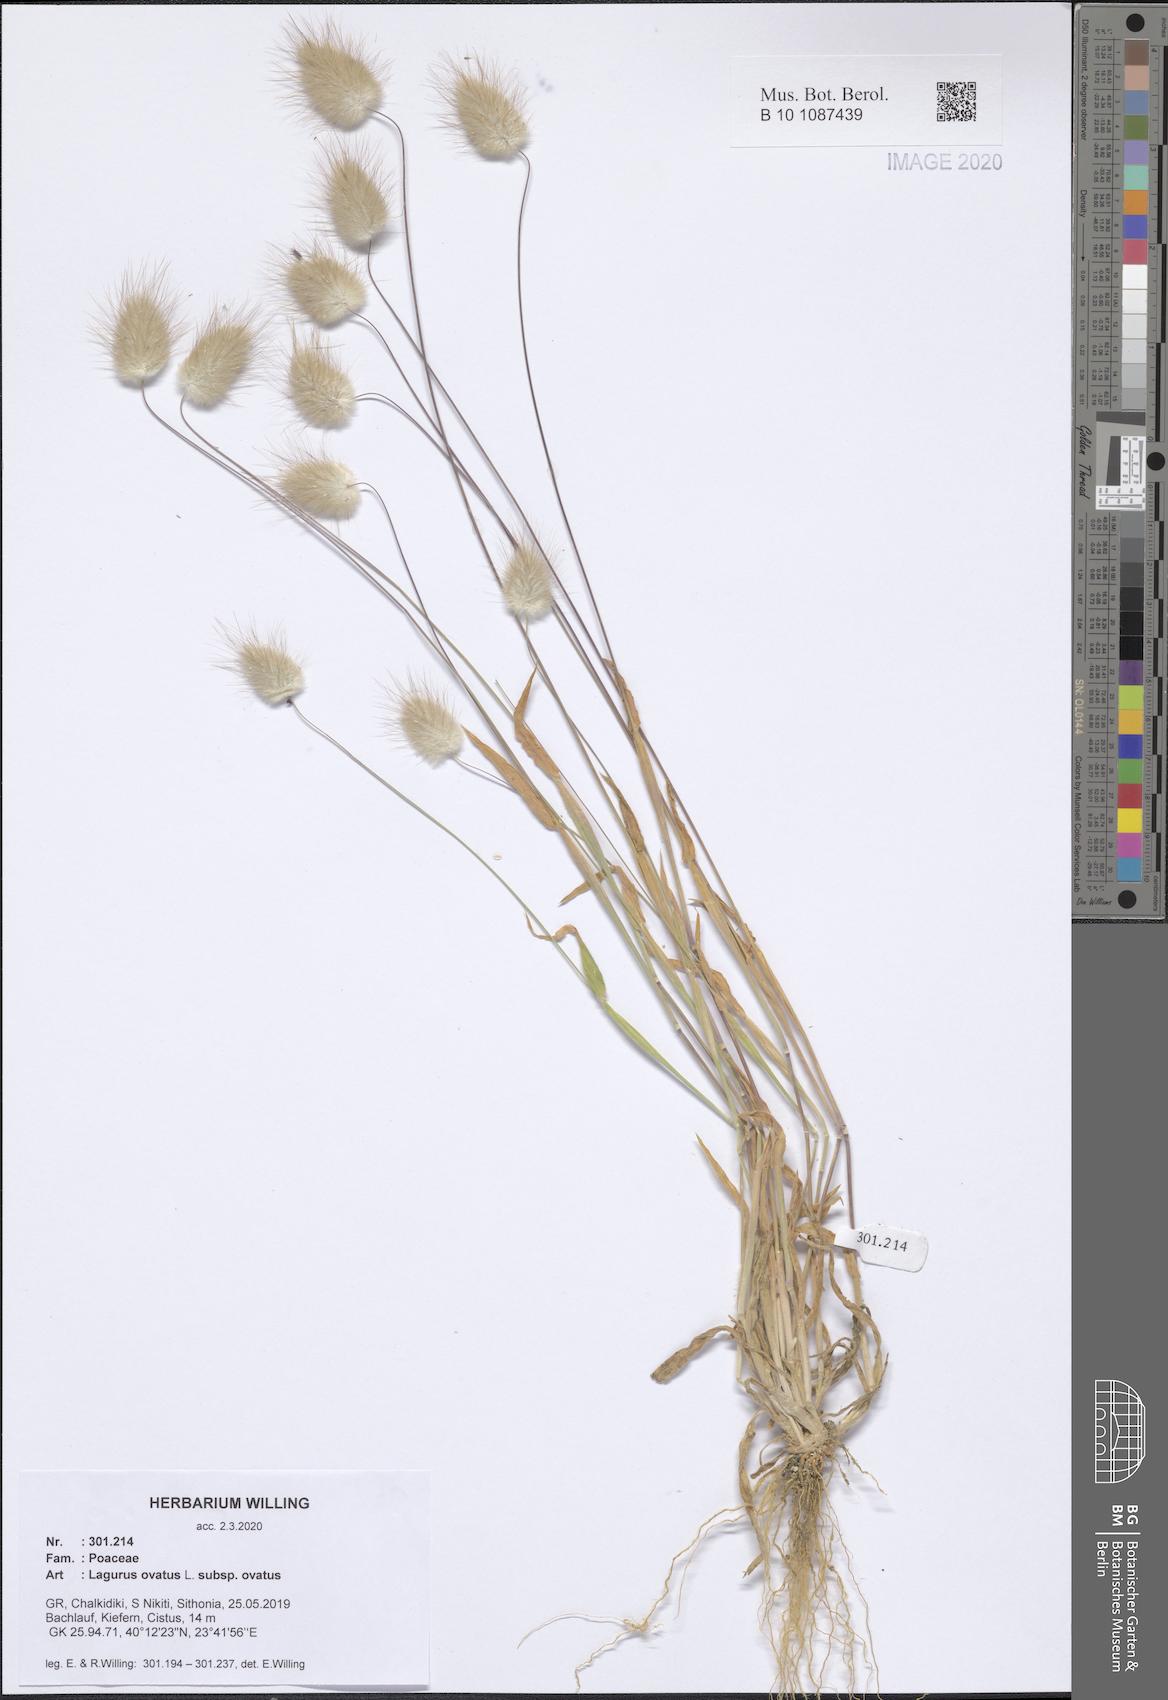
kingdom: Plantae
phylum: Tracheophyta
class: Liliopsida
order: Poales
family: Poaceae
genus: Lagurus
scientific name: Lagurus ovatus
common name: Hare's-tail
